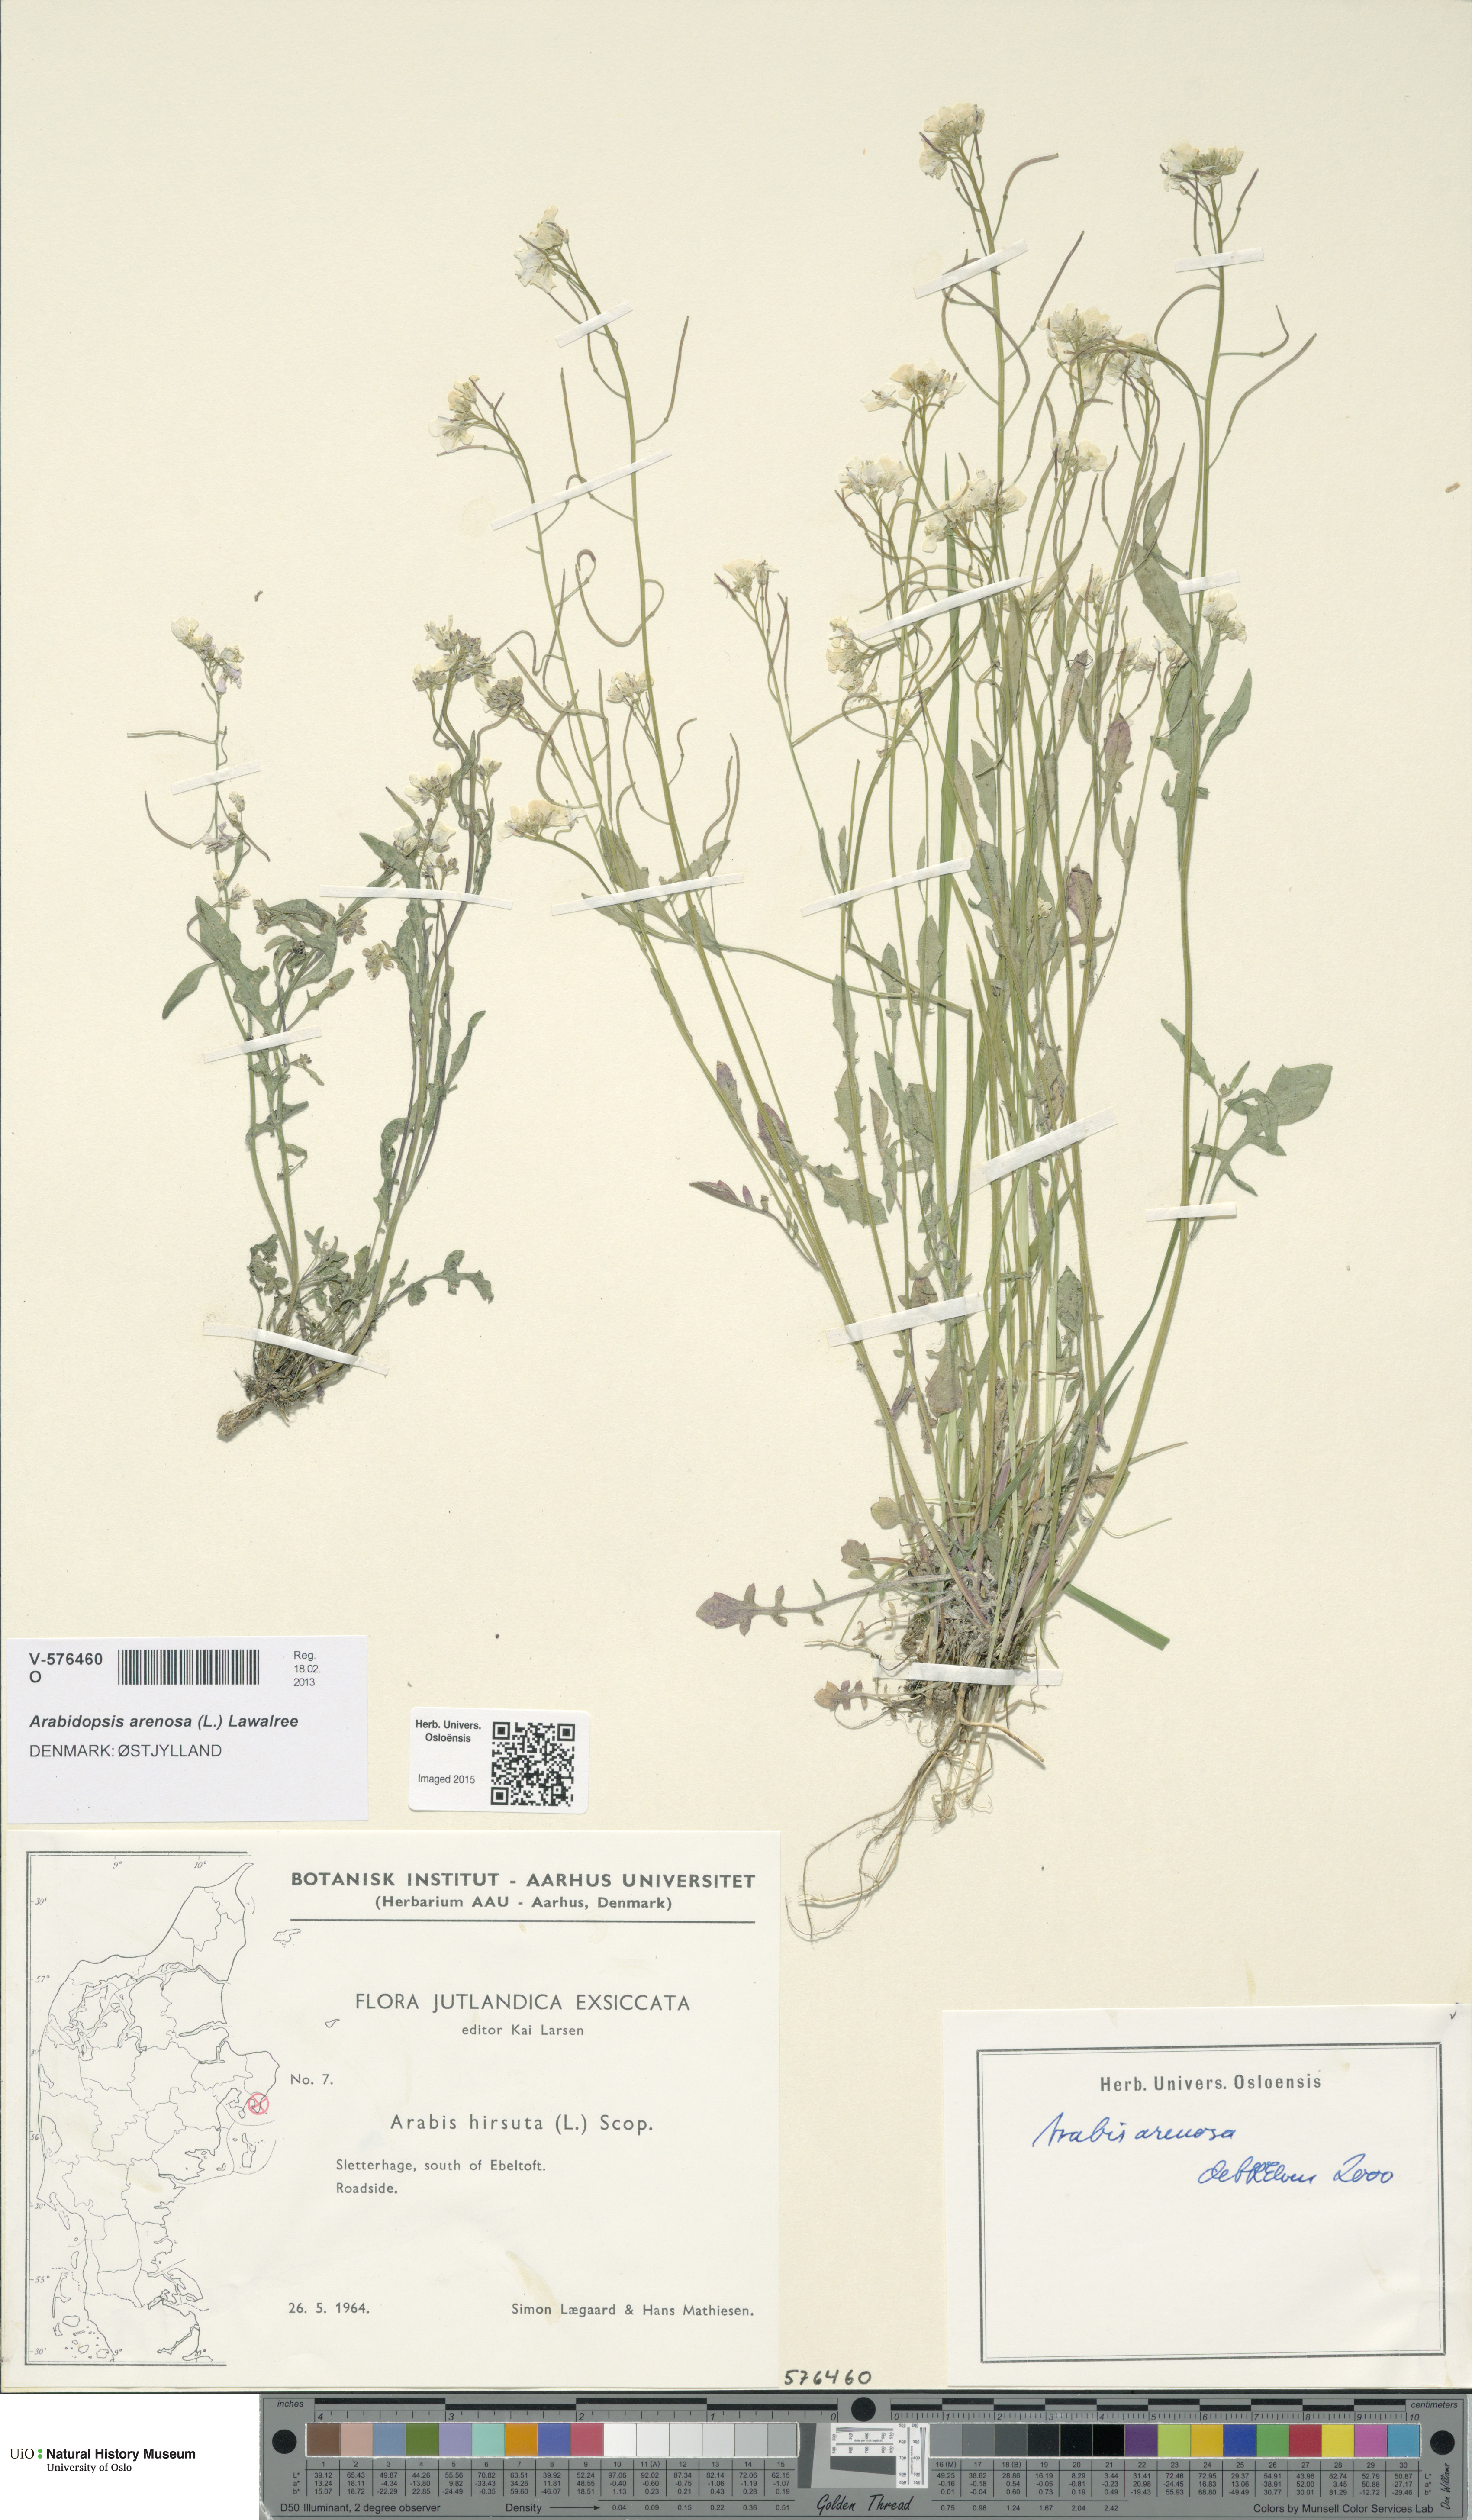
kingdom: Plantae
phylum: Tracheophyta
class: Magnoliopsida
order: Brassicales
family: Brassicaceae
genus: Arabidopsis
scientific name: Arabidopsis arenosa
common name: Sand rock-cress
